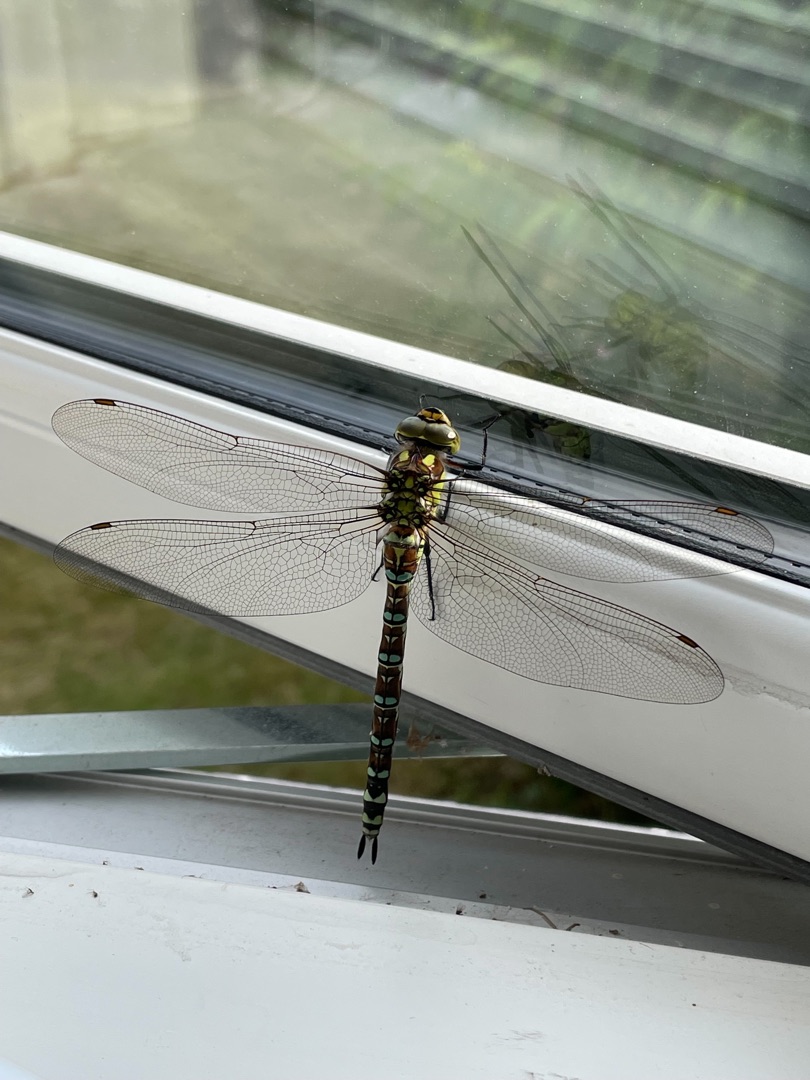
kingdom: Animalia
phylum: Arthropoda
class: Insecta
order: Odonata
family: Aeshnidae
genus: Aeshna
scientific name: Aeshna cyanea
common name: Blå mosaikguldsmed
